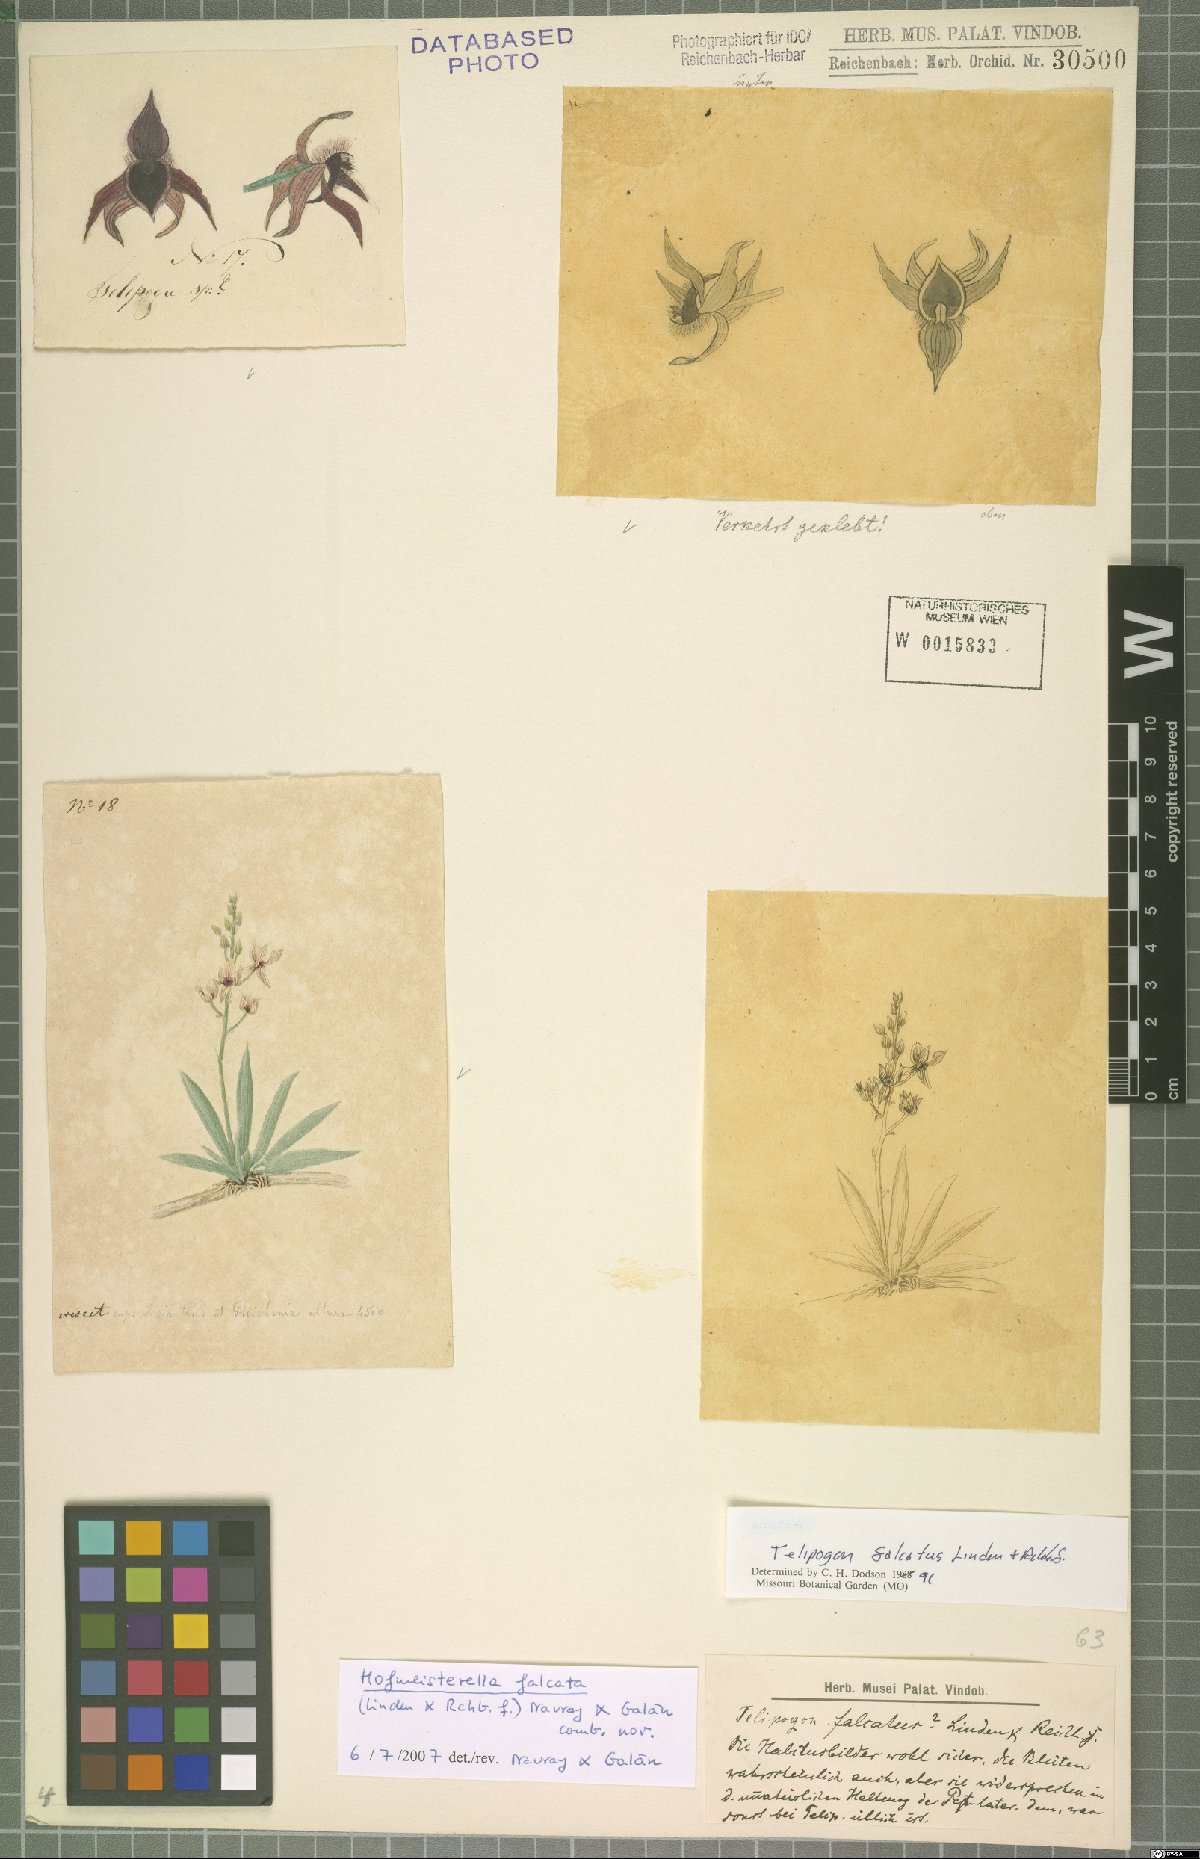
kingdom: Plantae
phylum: Tracheophyta
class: Liliopsida
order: Asparagales
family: Orchidaceae
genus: Telipogon
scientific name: Telipogon falcatus
